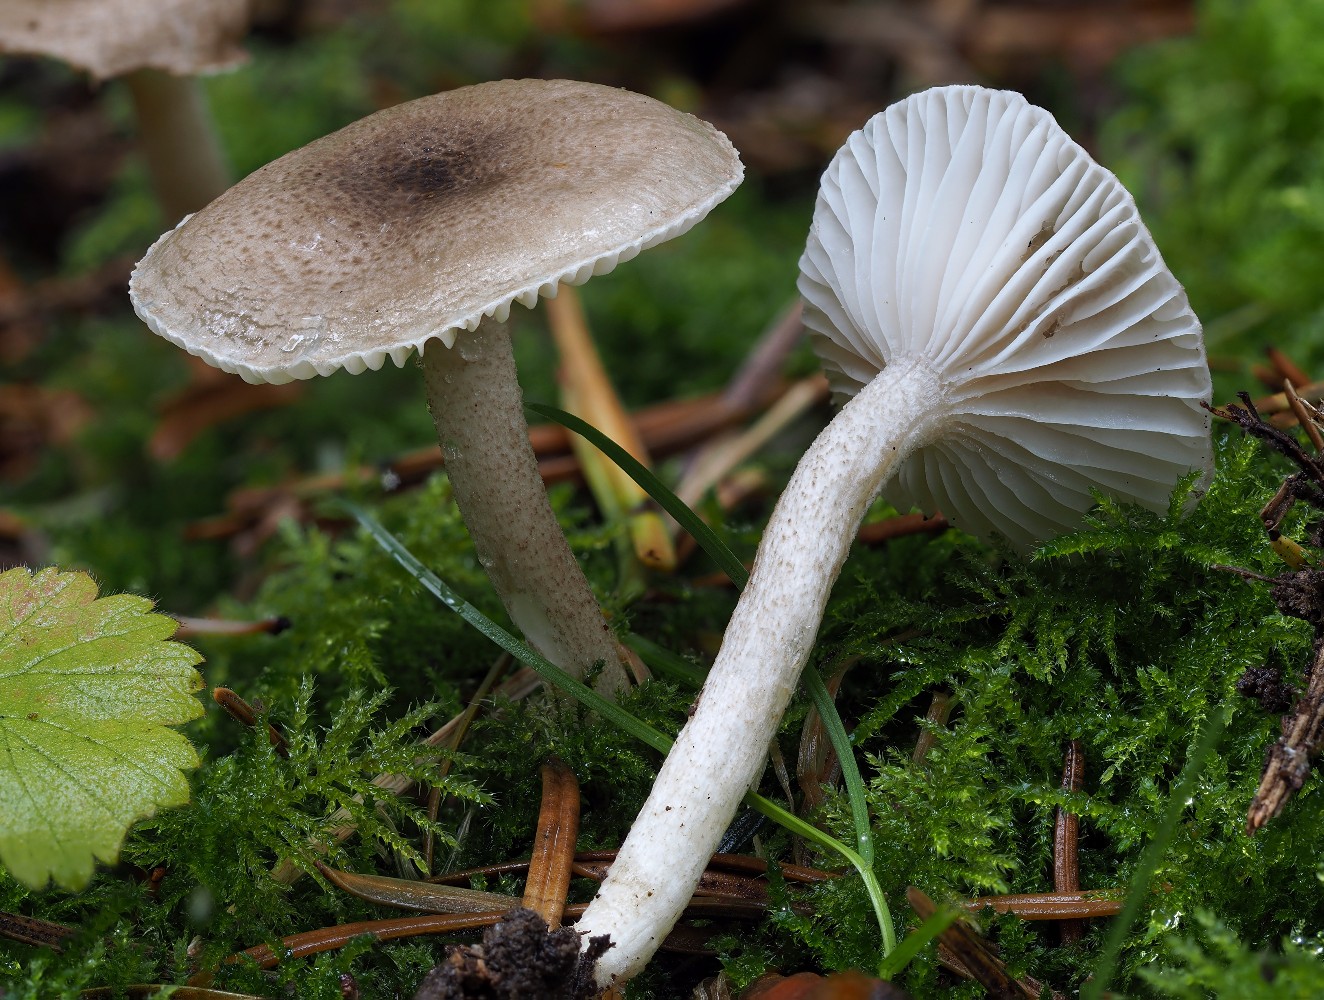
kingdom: Fungi
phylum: Basidiomycota
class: Agaricomycetes
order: Agaricales
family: Hygrophoraceae
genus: Hygrophorus
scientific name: Hygrophorus pustulatus
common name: mørkprikket sneglehat
